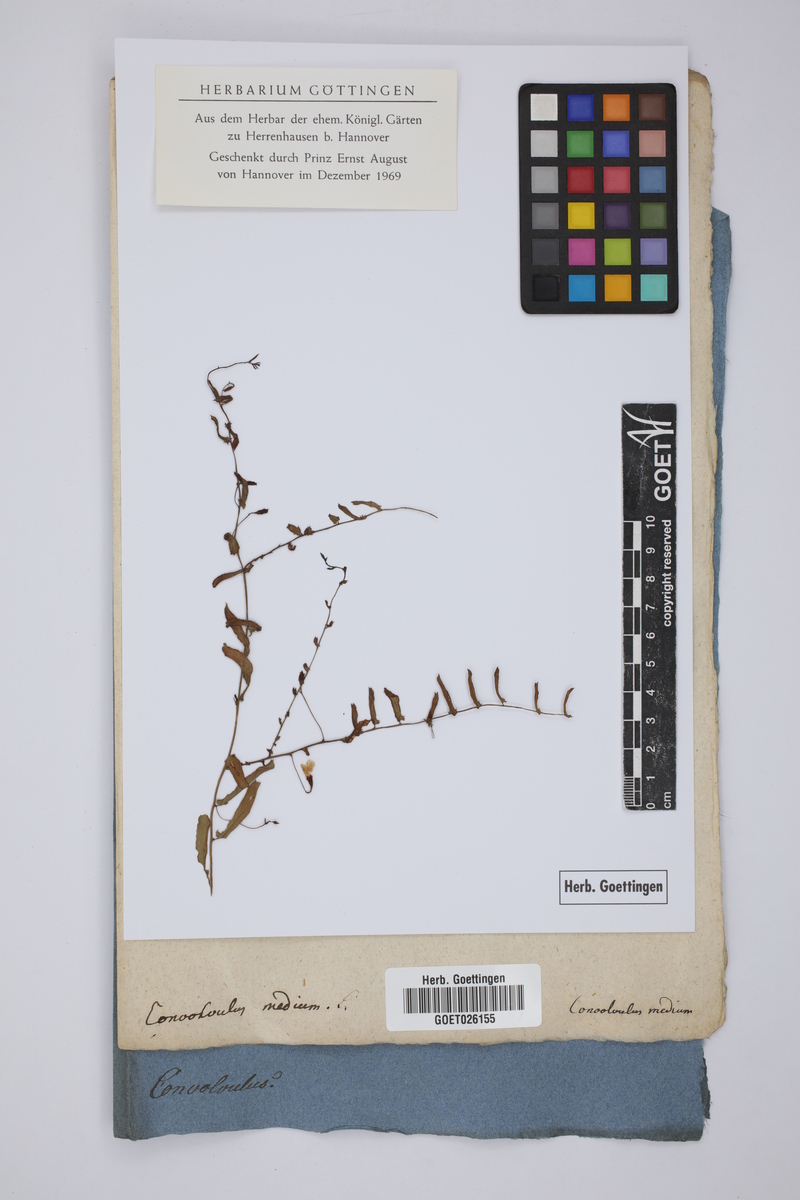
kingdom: Plantae
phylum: Tracheophyta
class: Magnoliopsida
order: Solanales
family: Convolvulaceae
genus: Xenostegia
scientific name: Xenostegia medium
